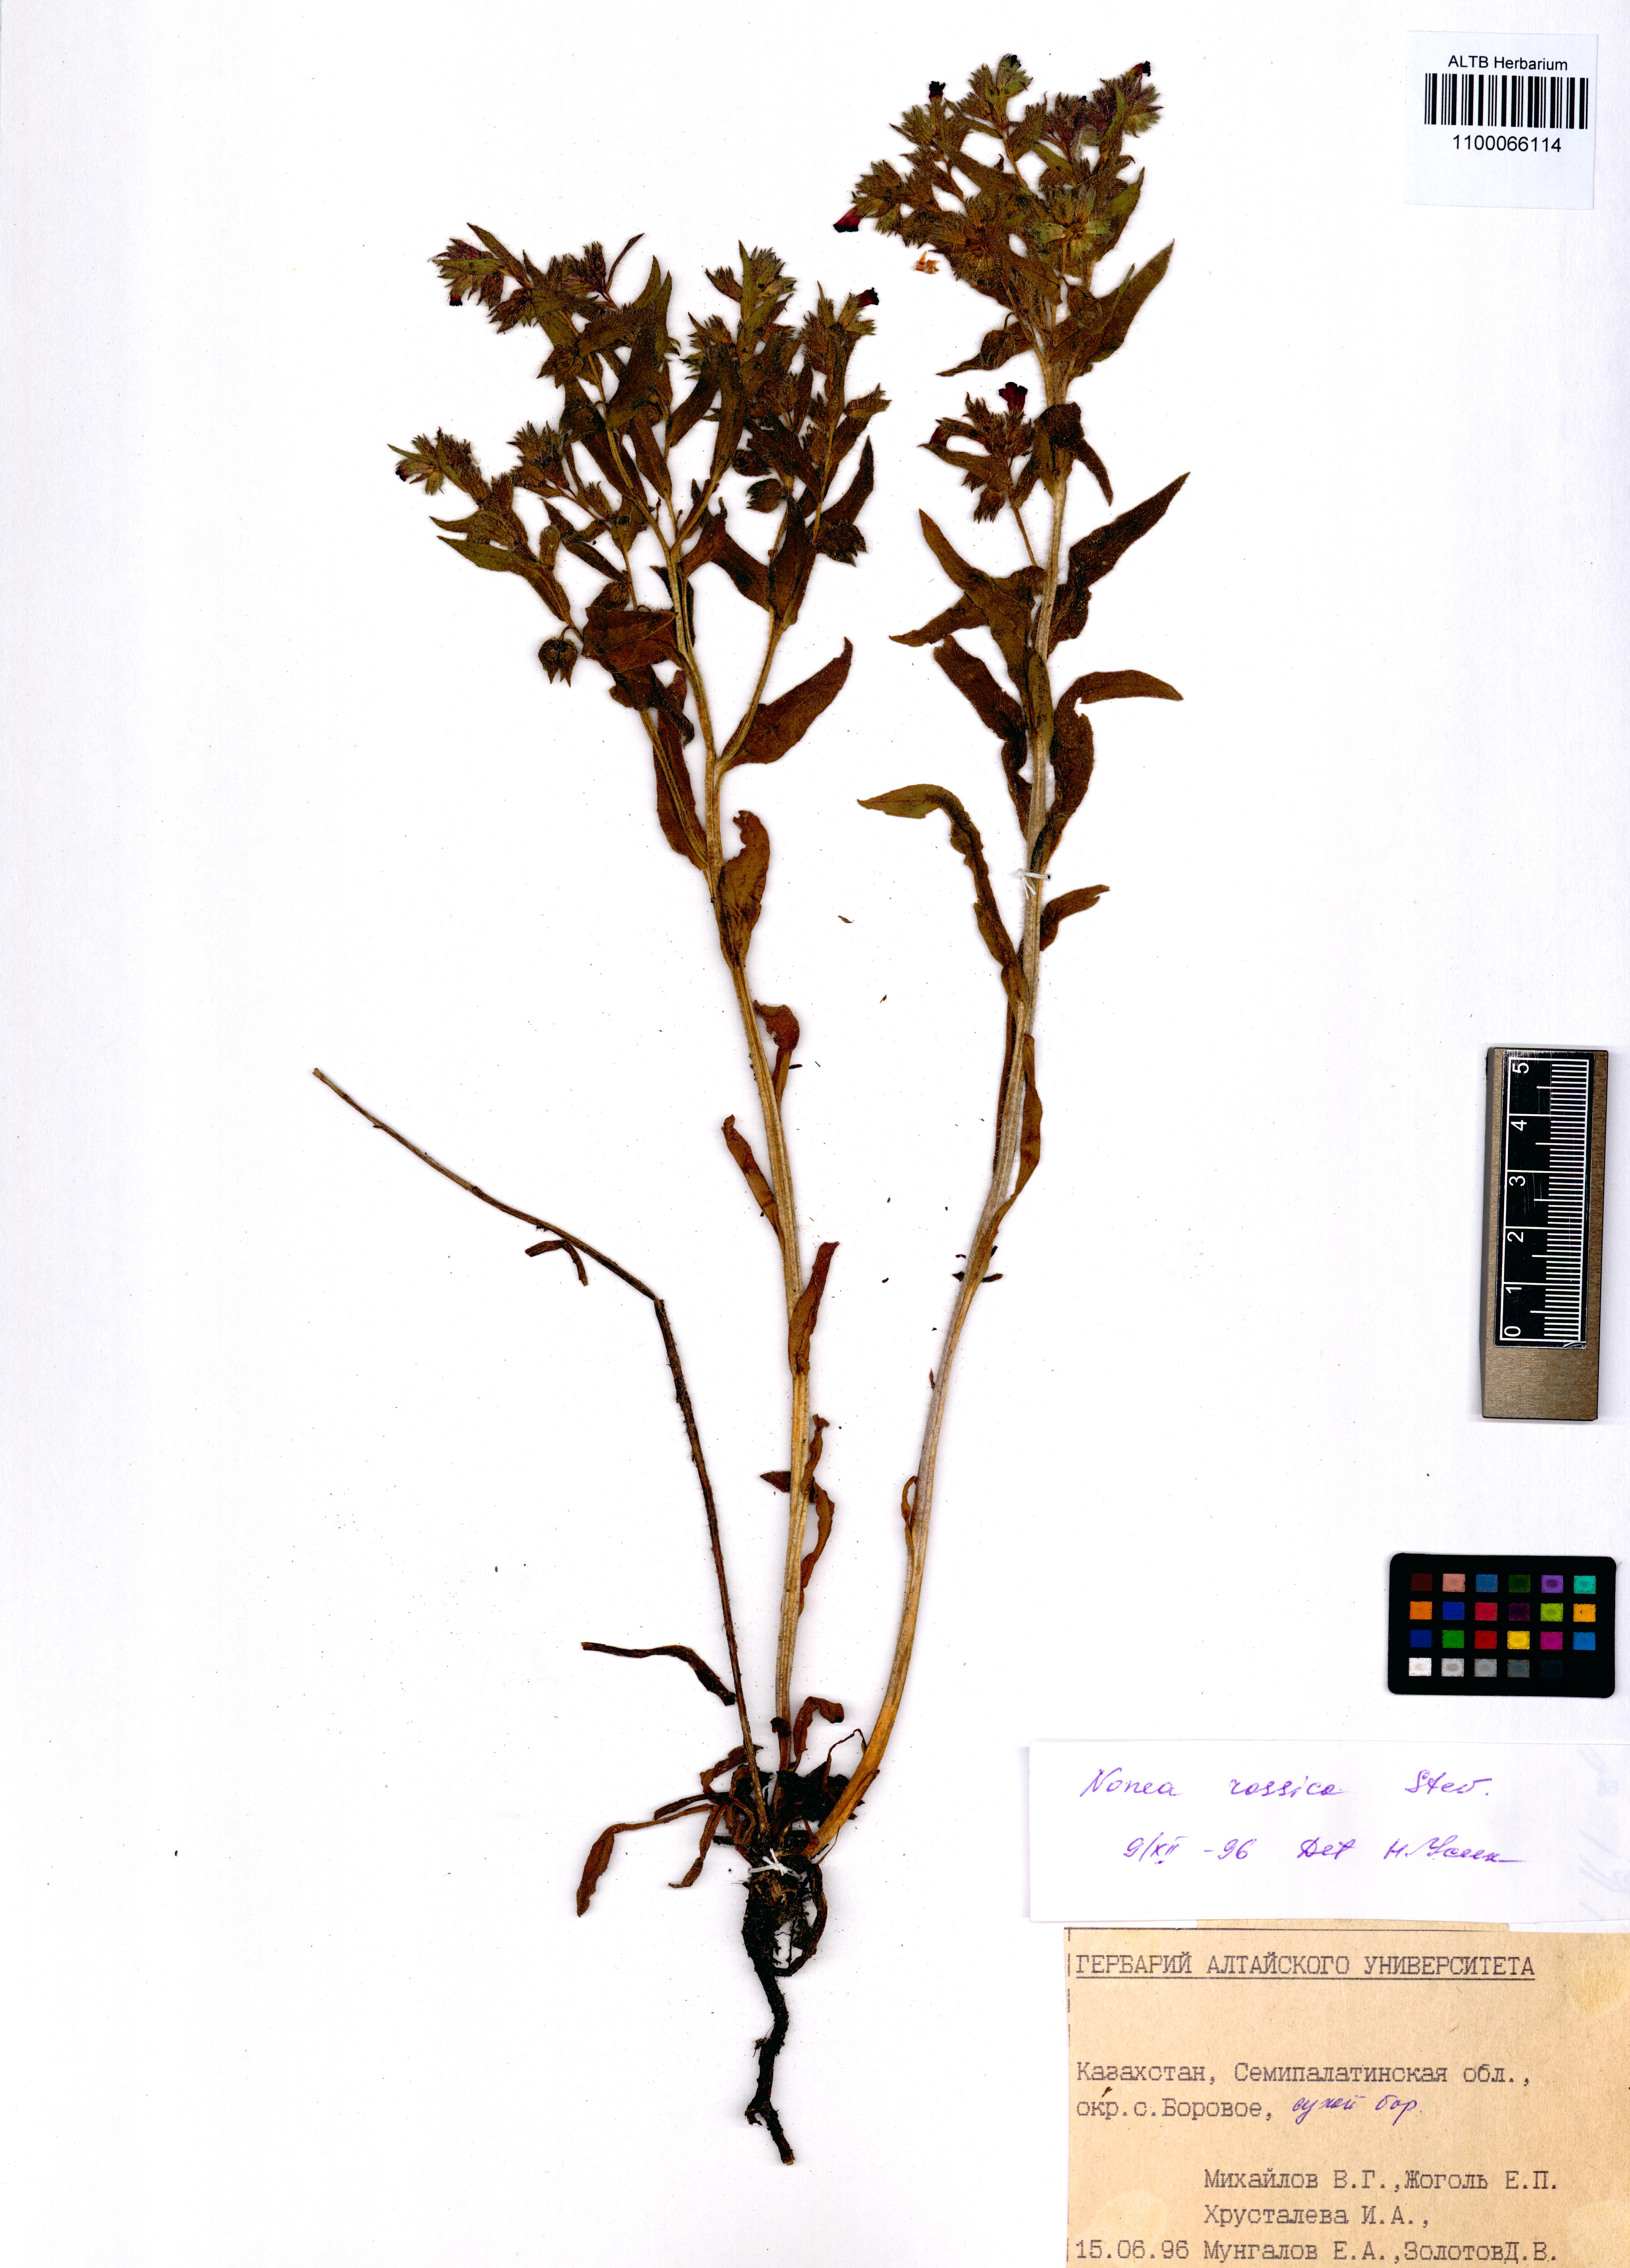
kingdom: Plantae
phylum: Tracheophyta
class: Magnoliopsida
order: Boraginales
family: Boraginaceae
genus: Nonea
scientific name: Nonea pulla
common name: Brown nonea
